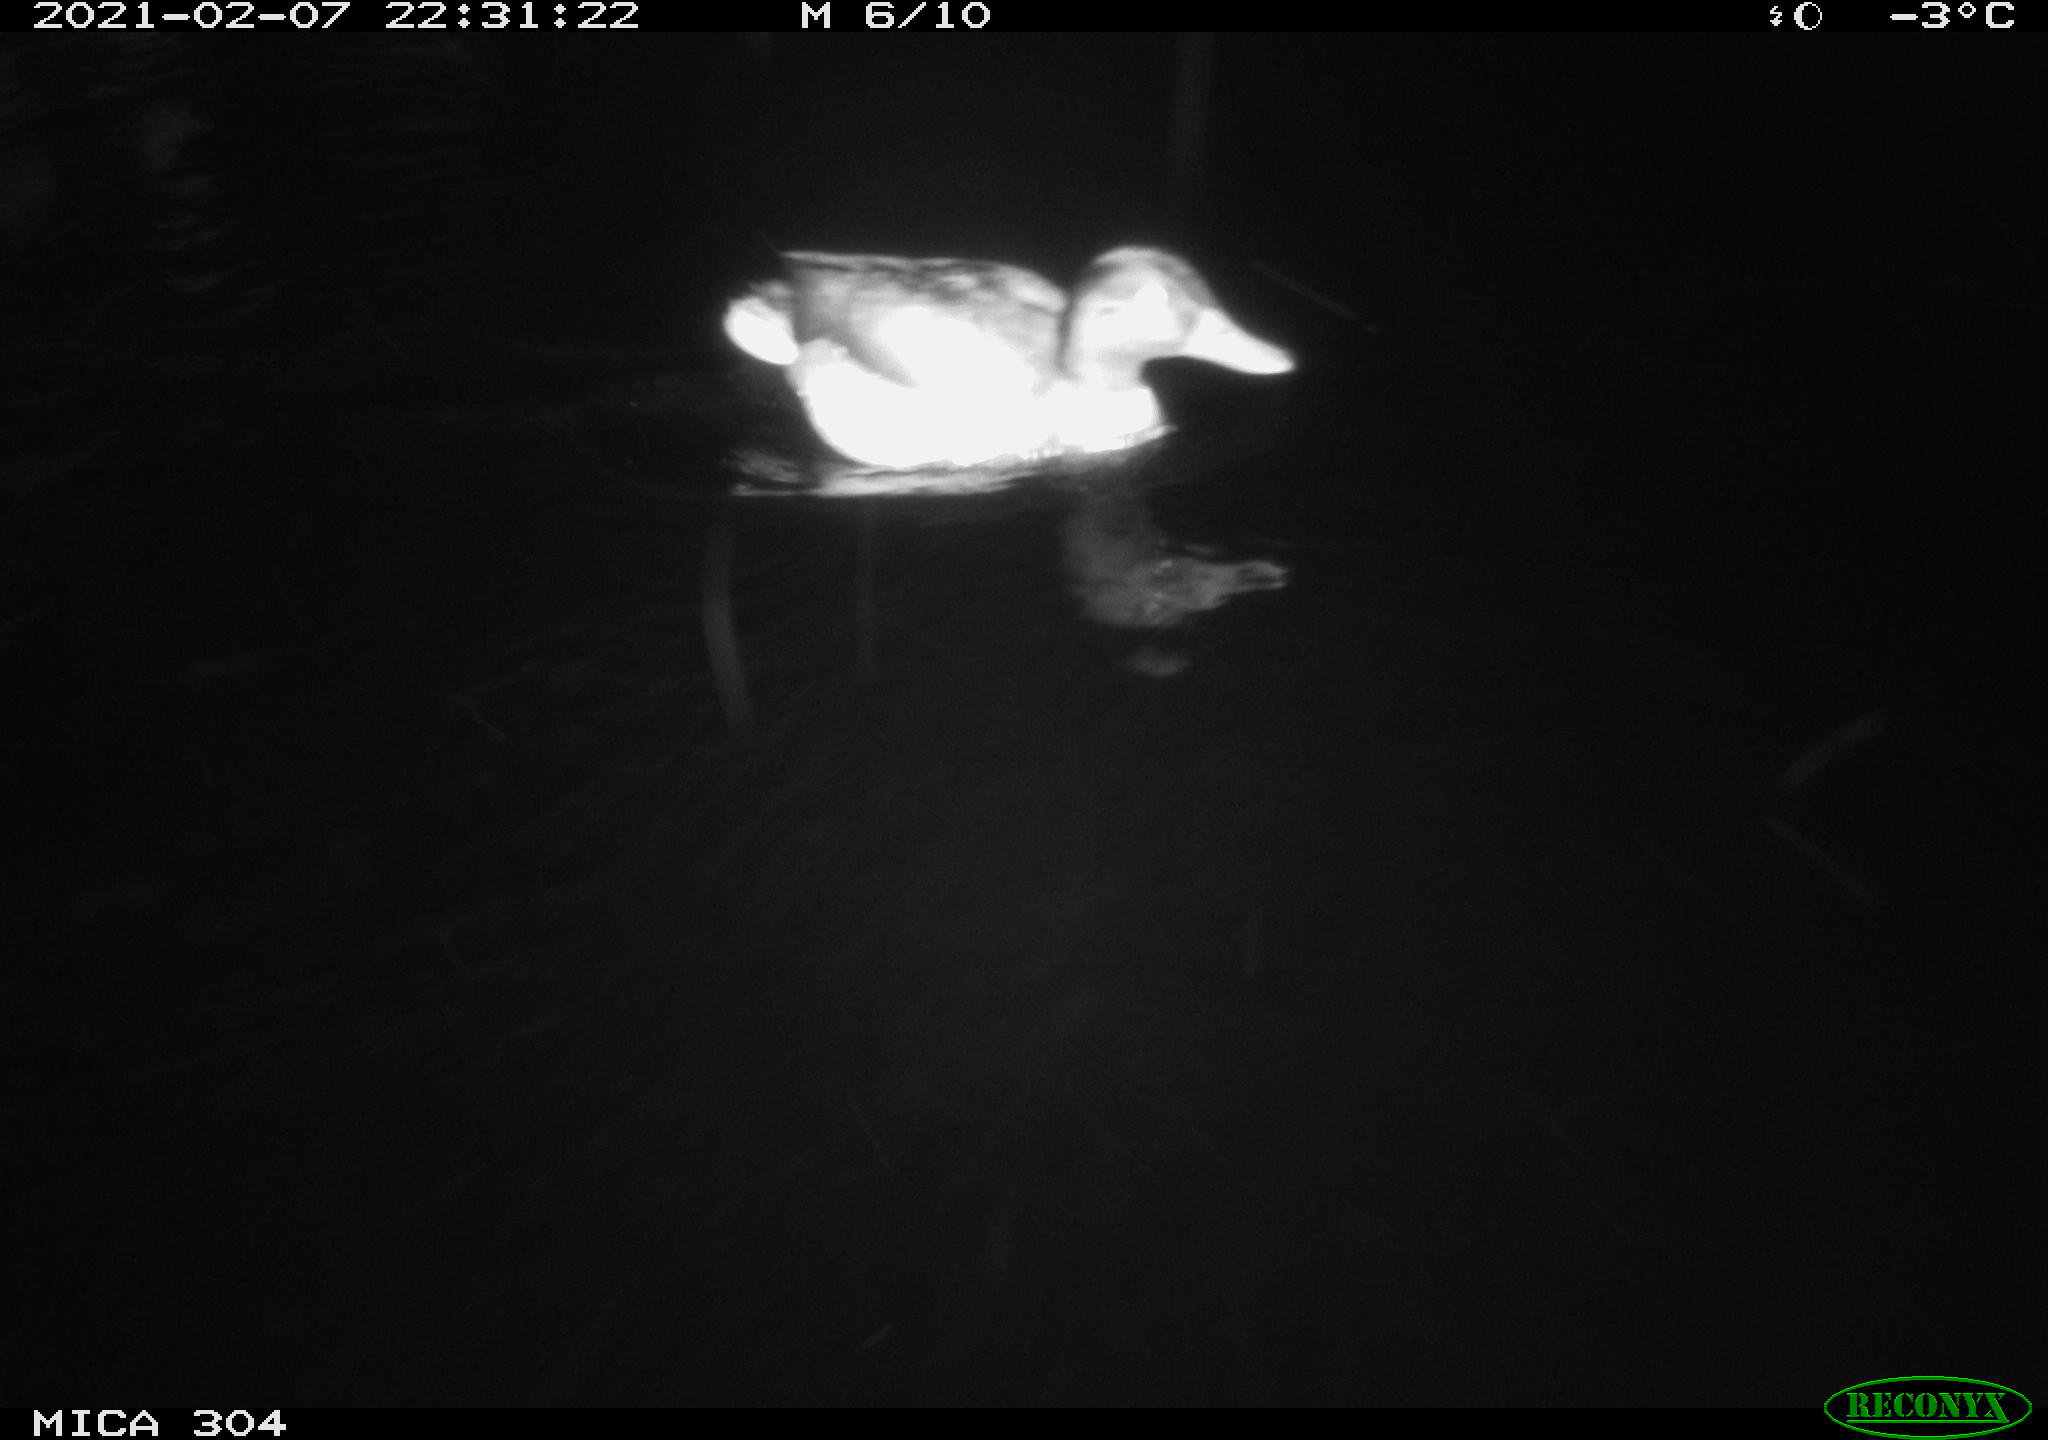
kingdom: Animalia
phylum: Chordata
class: Aves
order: Anseriformes
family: Anatidae
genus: Mareca
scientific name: Mareca strepera
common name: Gadwall
